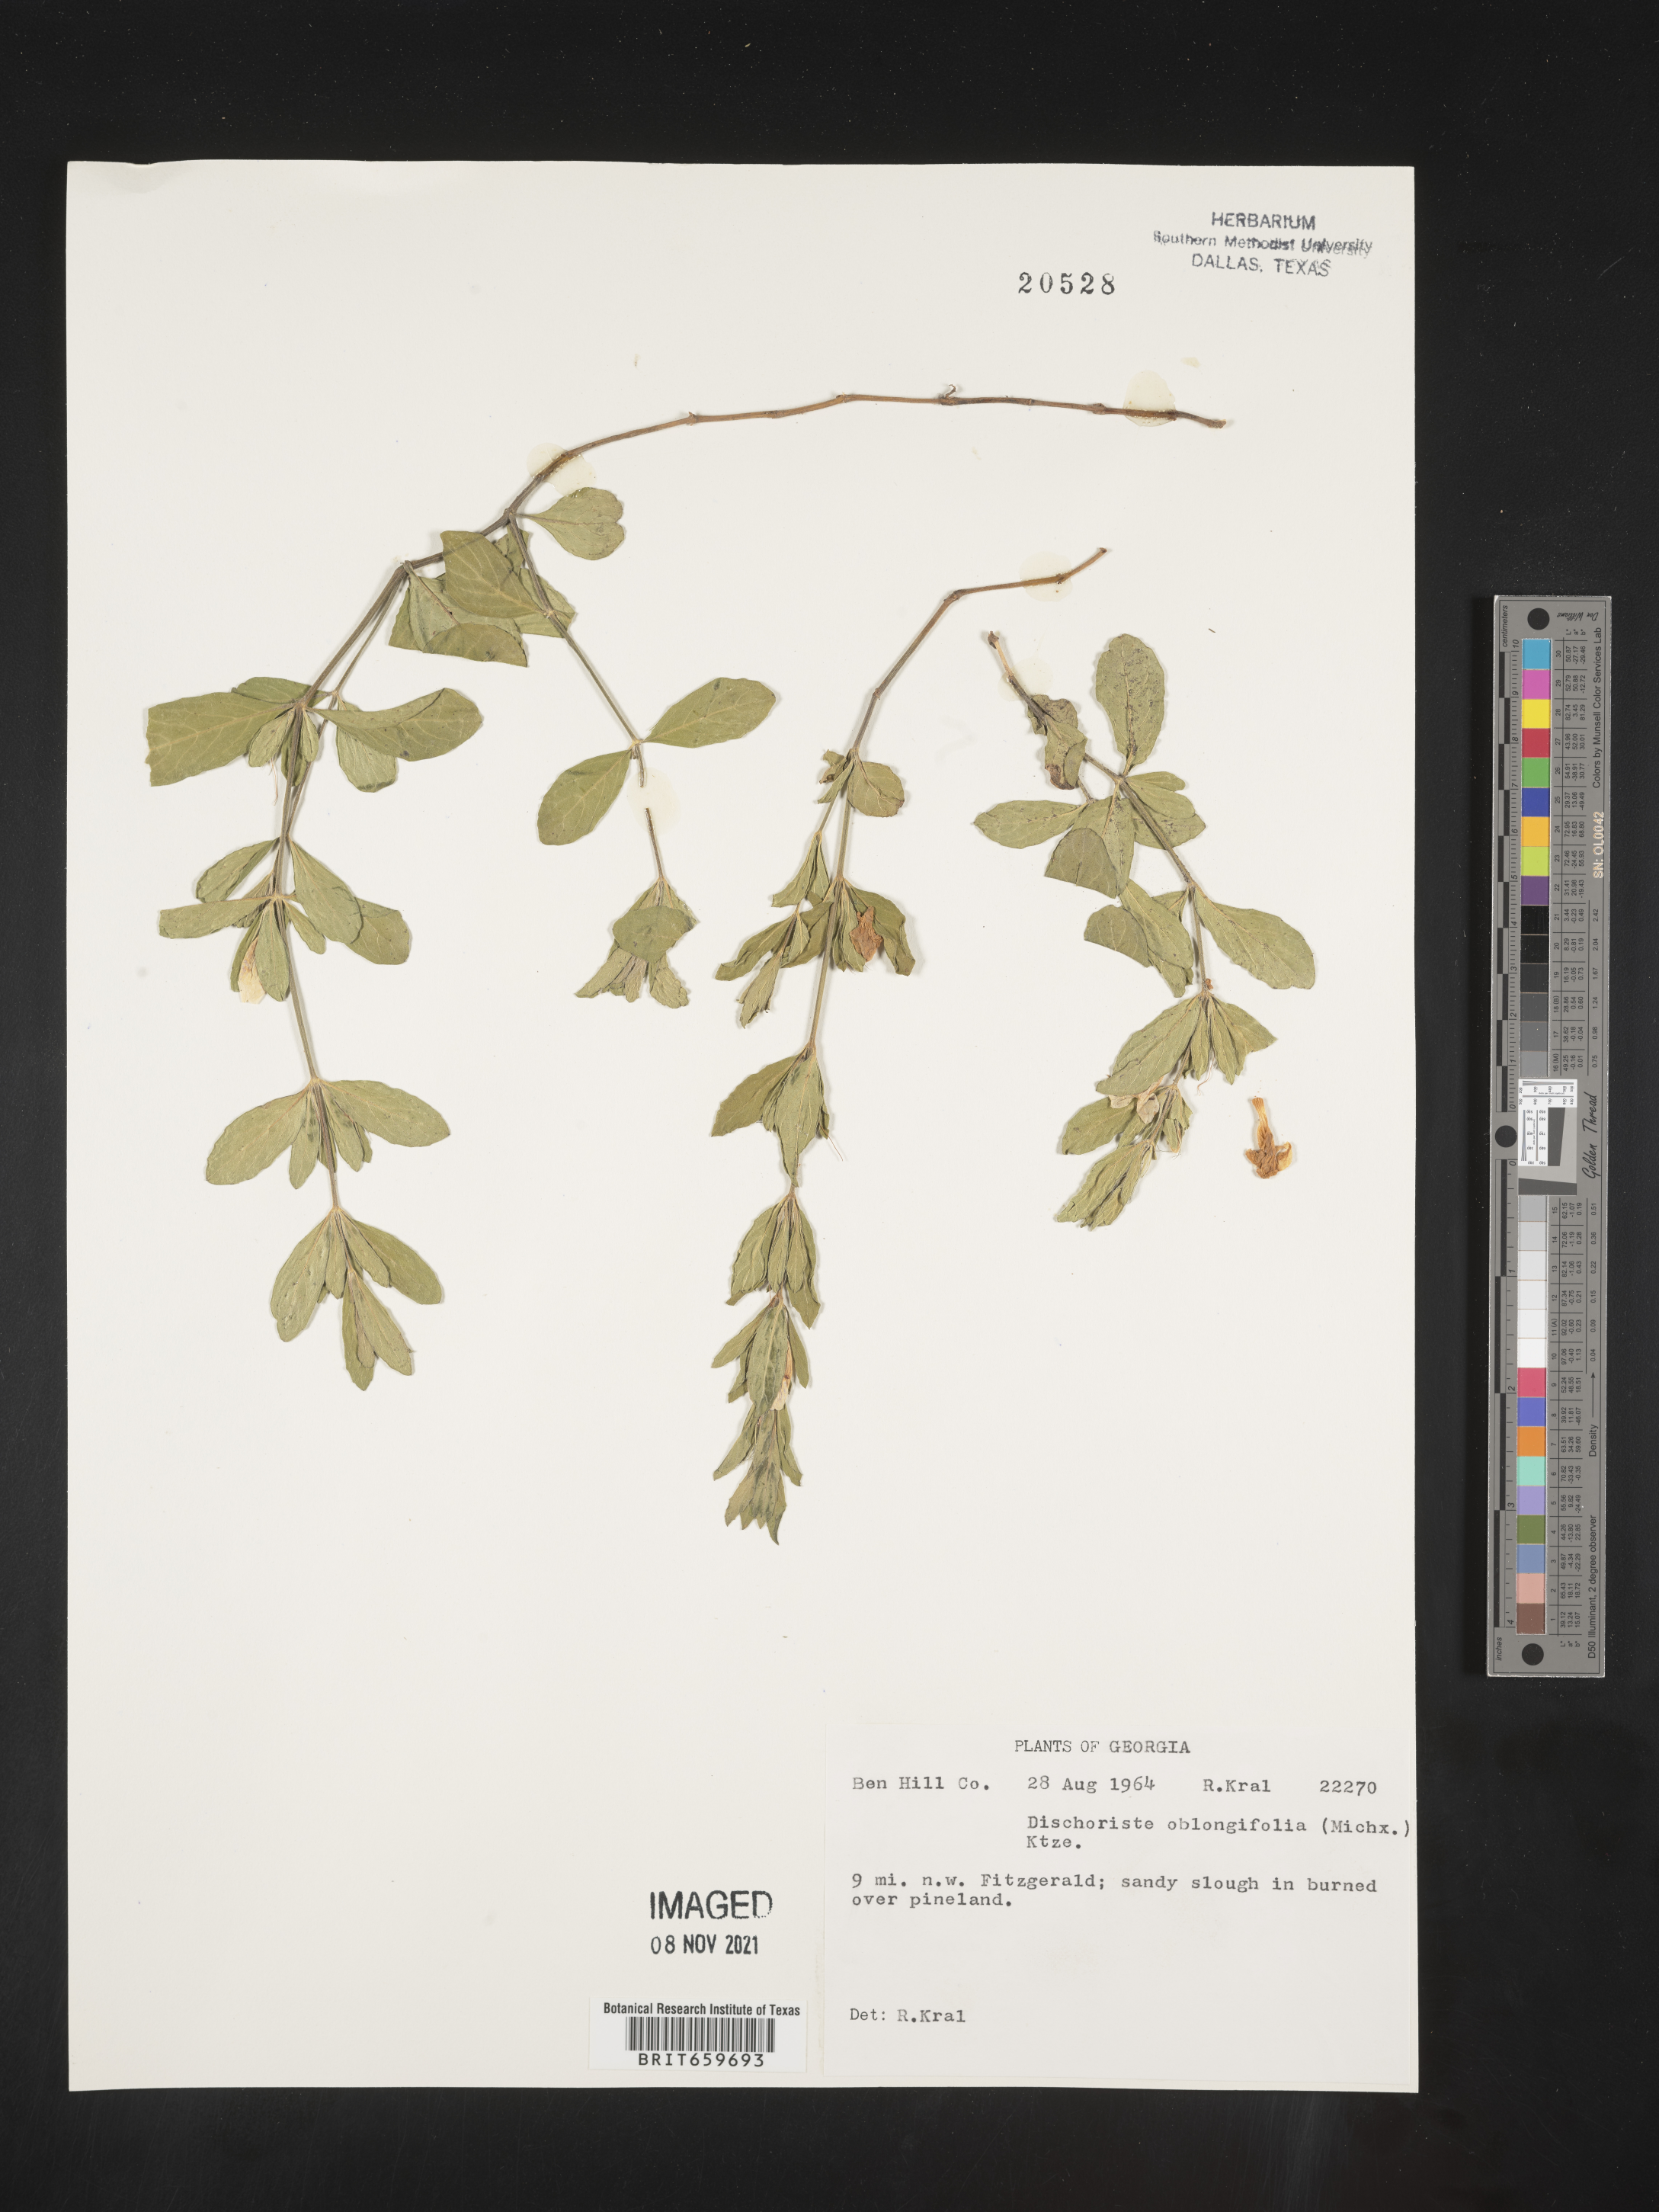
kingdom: Plantae
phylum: Tracheophyta
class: Magnoliopsida
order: Lamiales
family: Acanthaceae
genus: Dyschoriste
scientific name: Dyschoriste oblongifolia
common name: Blue twinflower
